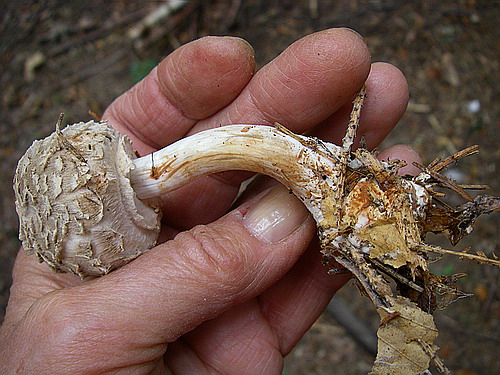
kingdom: Fungi
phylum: Basidiomycota
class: Agaricomycetes
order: Agaricales
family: Agaricaceae
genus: Chlorophyllum
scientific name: Chlorophyllum olivieri
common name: almindelig rabarberhat
